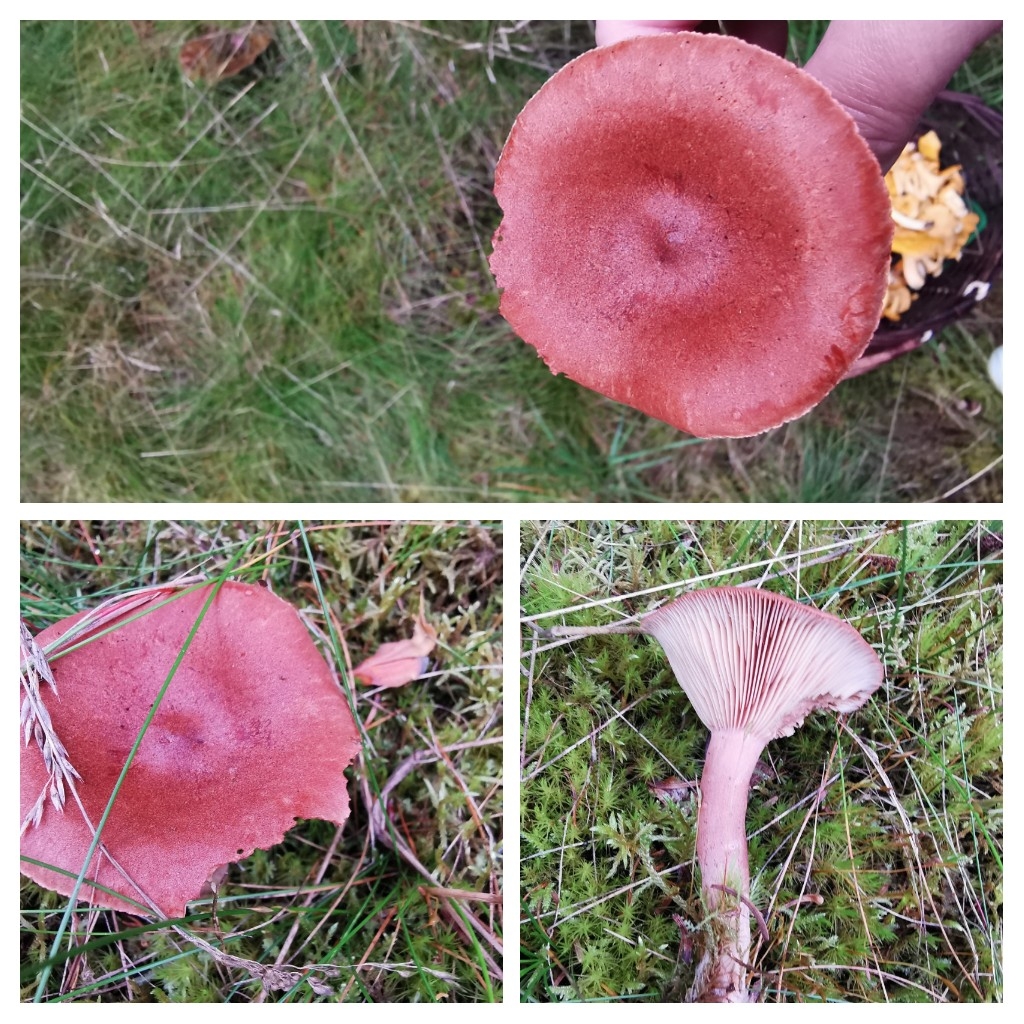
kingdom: Fungi
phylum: Basidiomycota
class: Agaricomycetes
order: Russulales
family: Russulaceae
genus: Lactarius
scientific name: Lactarius rufus
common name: rødbrun mælkehat
